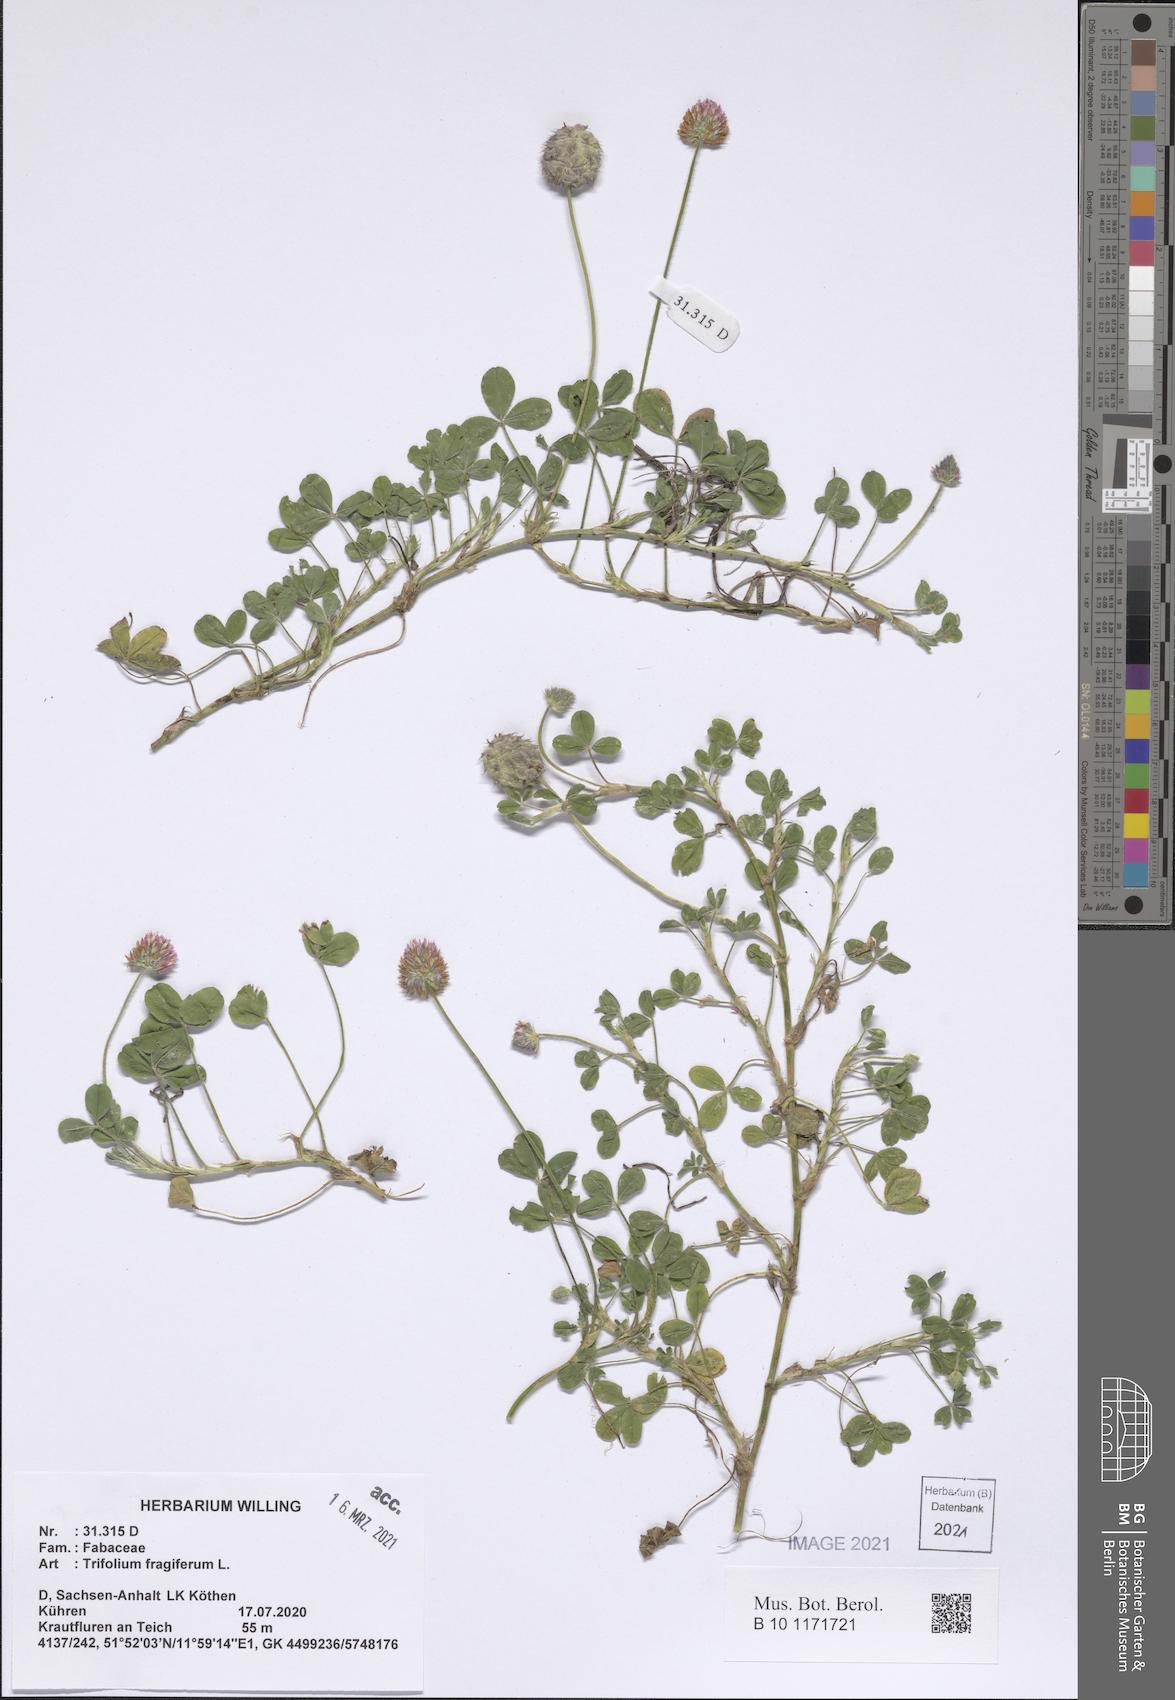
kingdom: Plantae
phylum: Tracheophyta
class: Magnoliopsida
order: Fabales
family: Fabaceae
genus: Trifolium
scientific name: Trifolium fragiferum
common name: Strawberry clover
